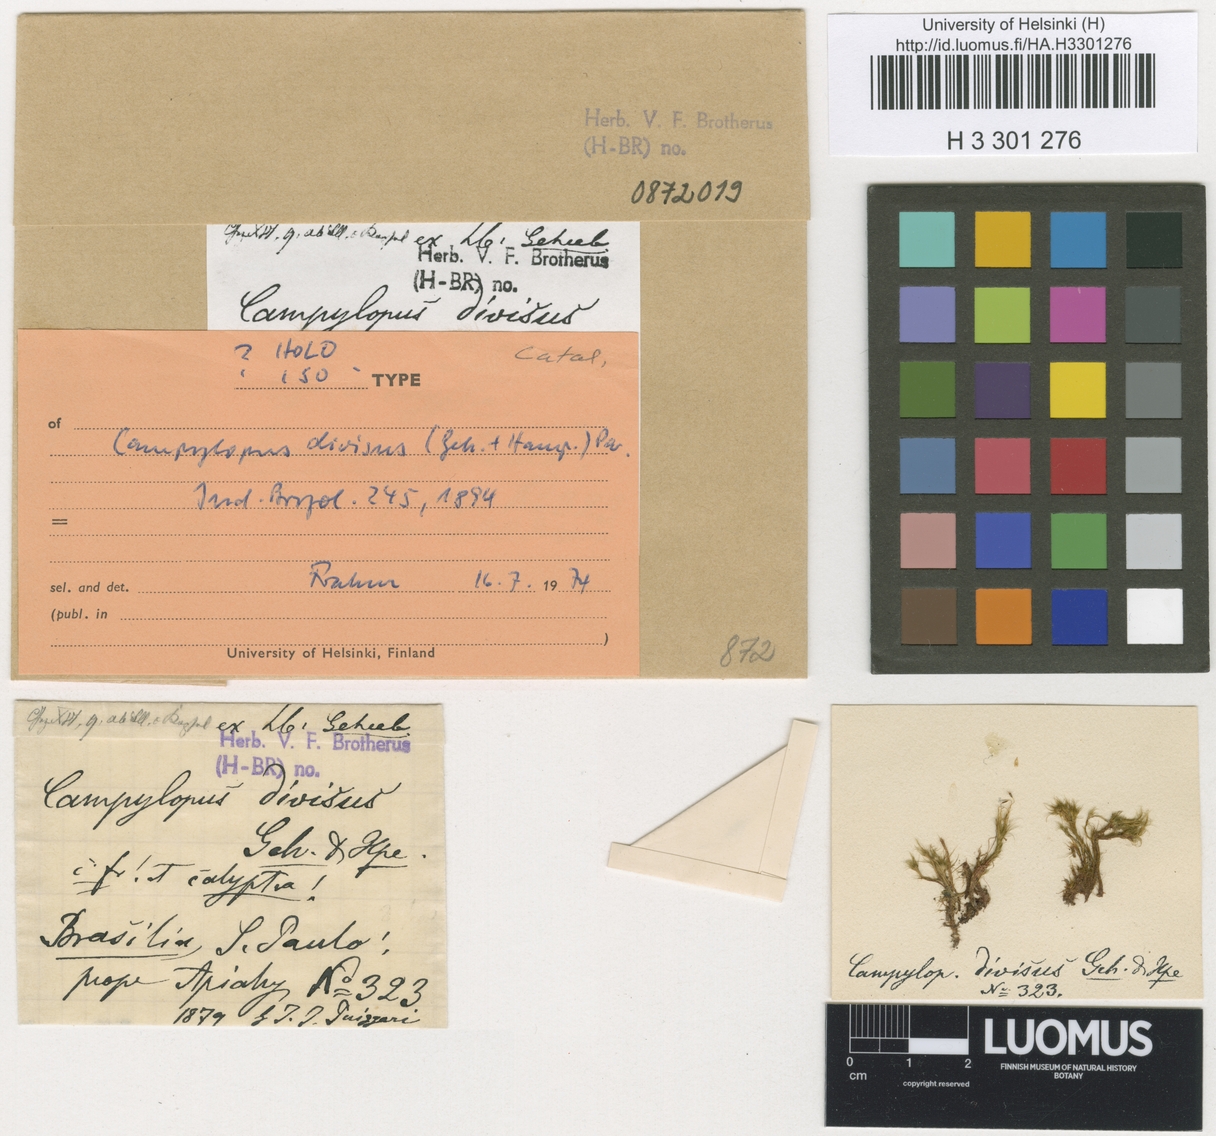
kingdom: Plantae
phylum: Bryophyta
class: Bryopsida
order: Dicranales
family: Leucobryaceae
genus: Campylopus
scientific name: Campylopus occultus
